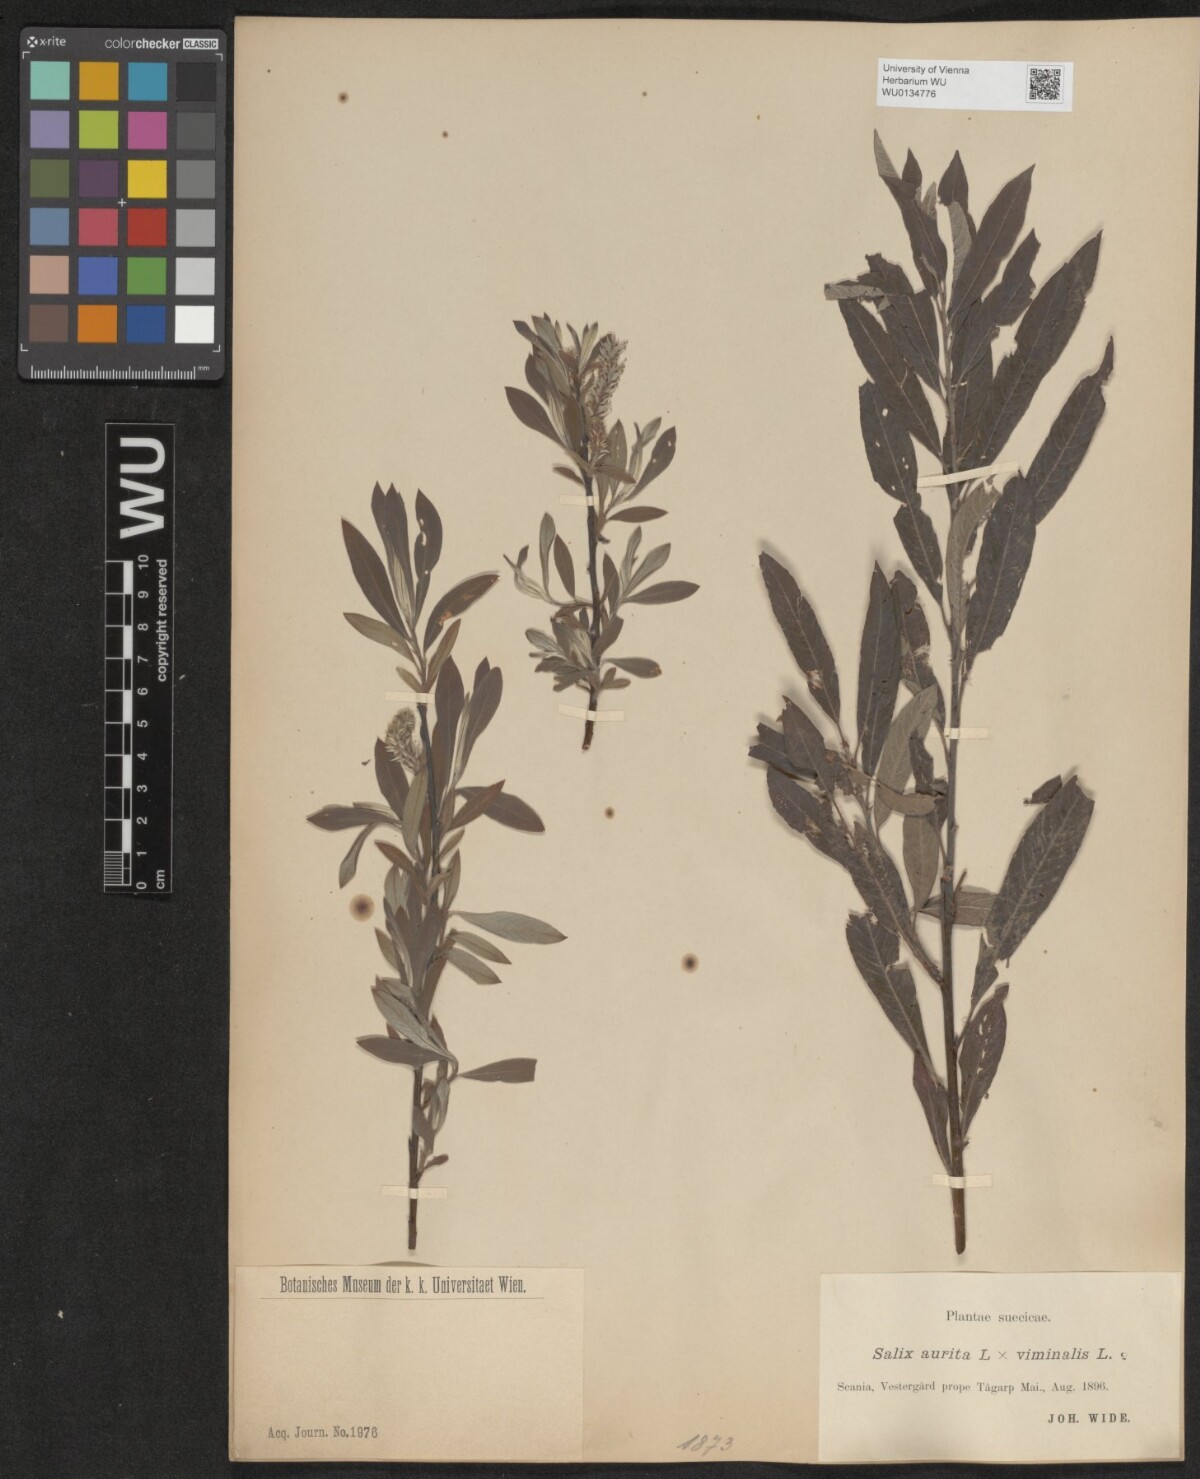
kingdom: Plantae
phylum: Tracheophyta
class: Magnoliopsida
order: Malpighiales
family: Salicaceae
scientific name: Salicaceae
